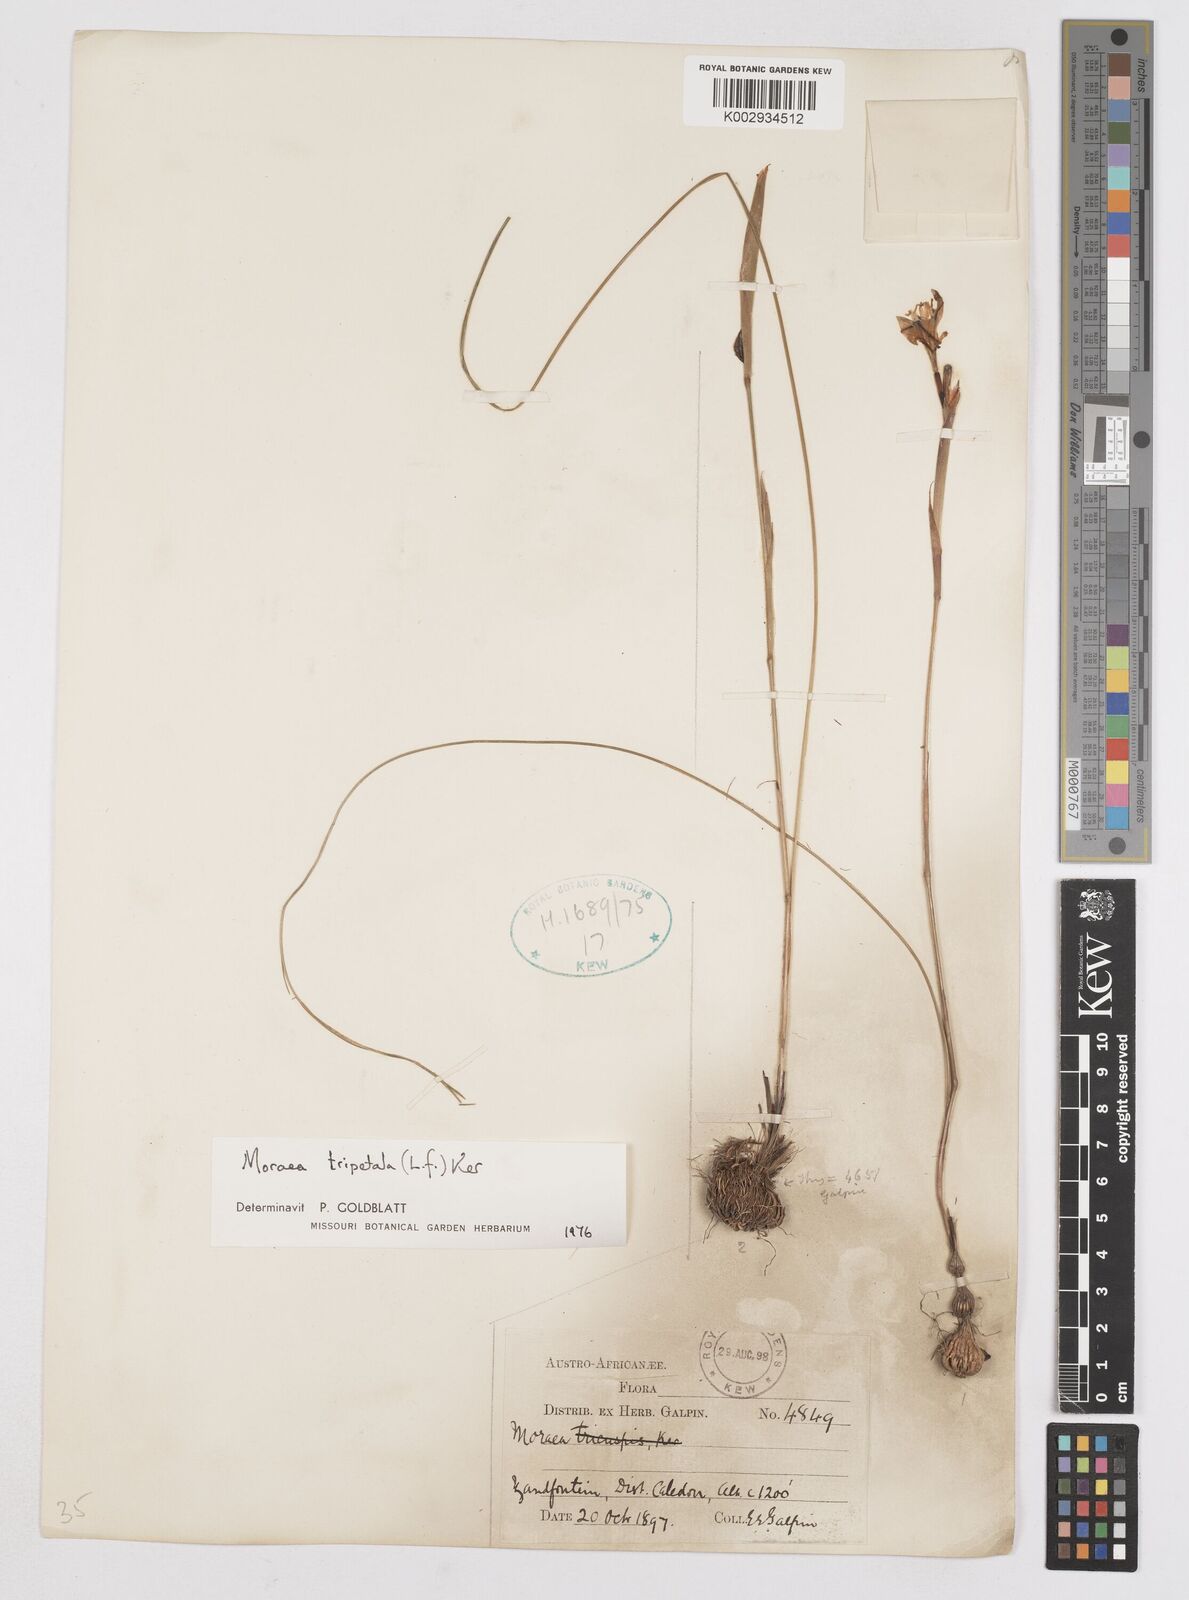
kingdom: Plantae
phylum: Tracheophyta
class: Liliopsida
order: Asparagales
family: Iridaceae
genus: Moraea
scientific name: Moraea tripetala
